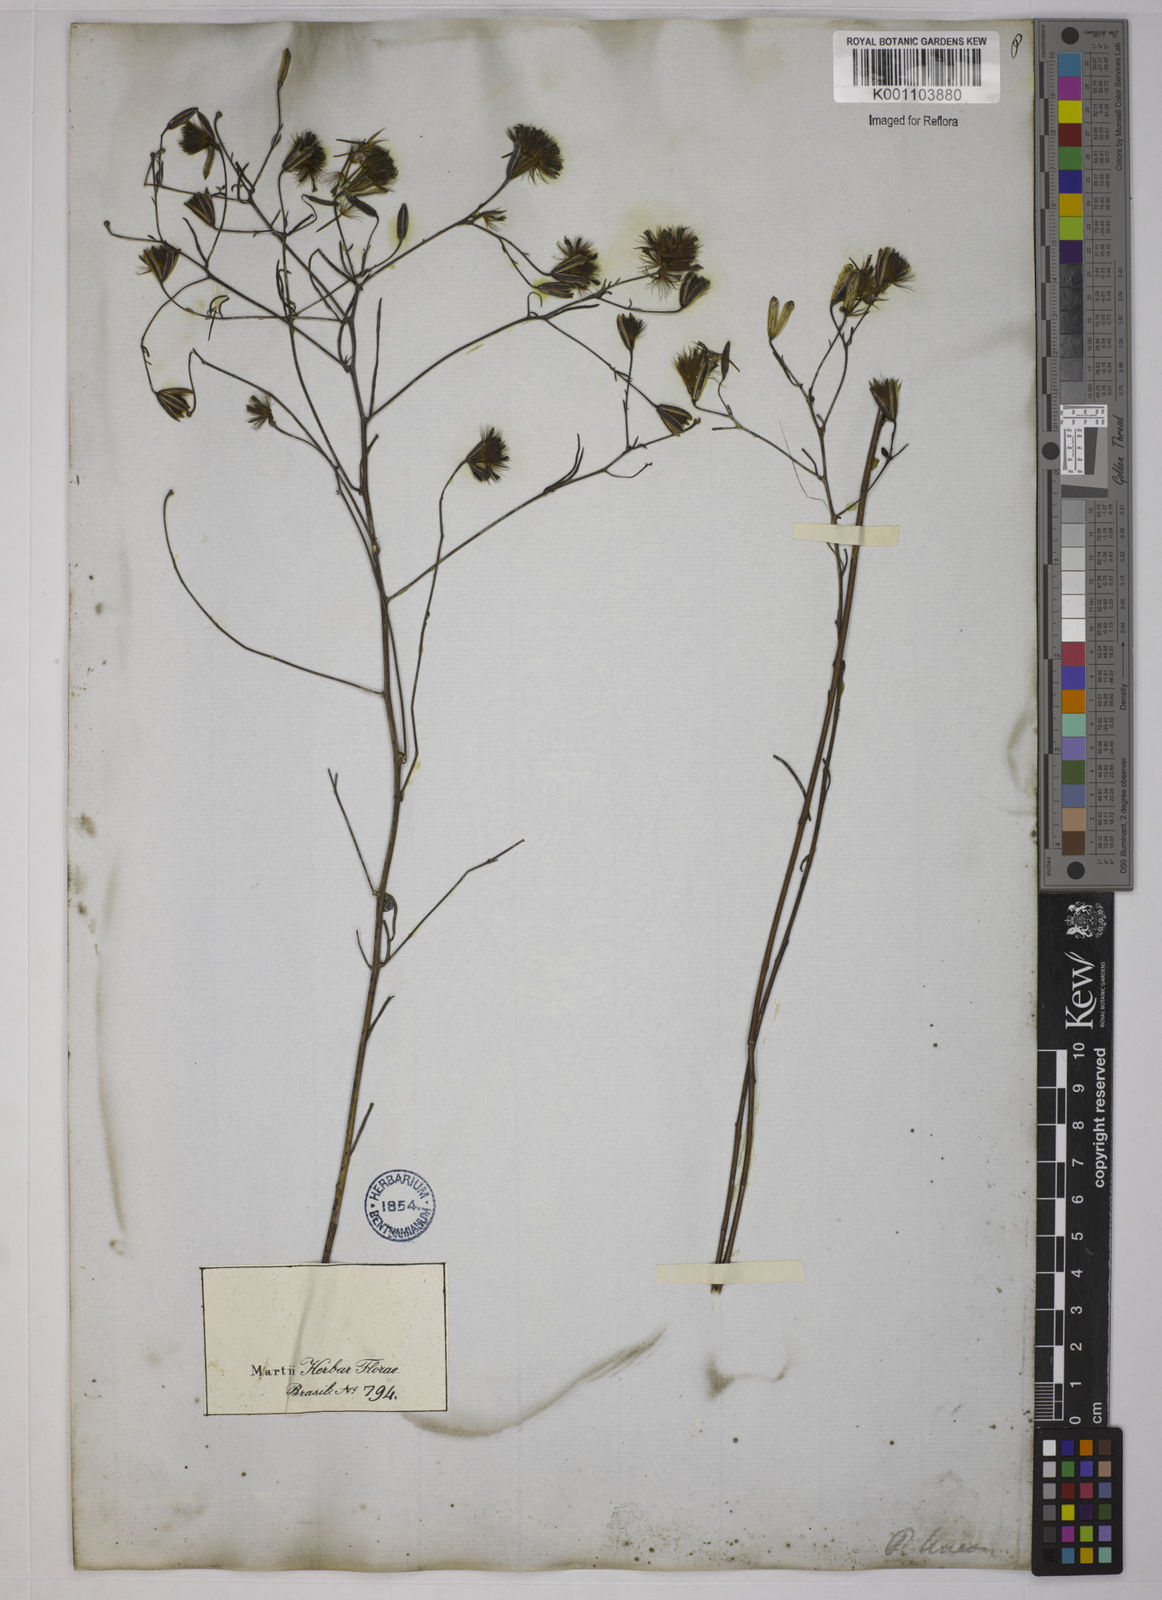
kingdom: Plantae
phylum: Tracheophyta
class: Magnoliopsida
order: Asterales
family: Asteraceae
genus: Porophyllum
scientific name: Porophyllum obscurum
